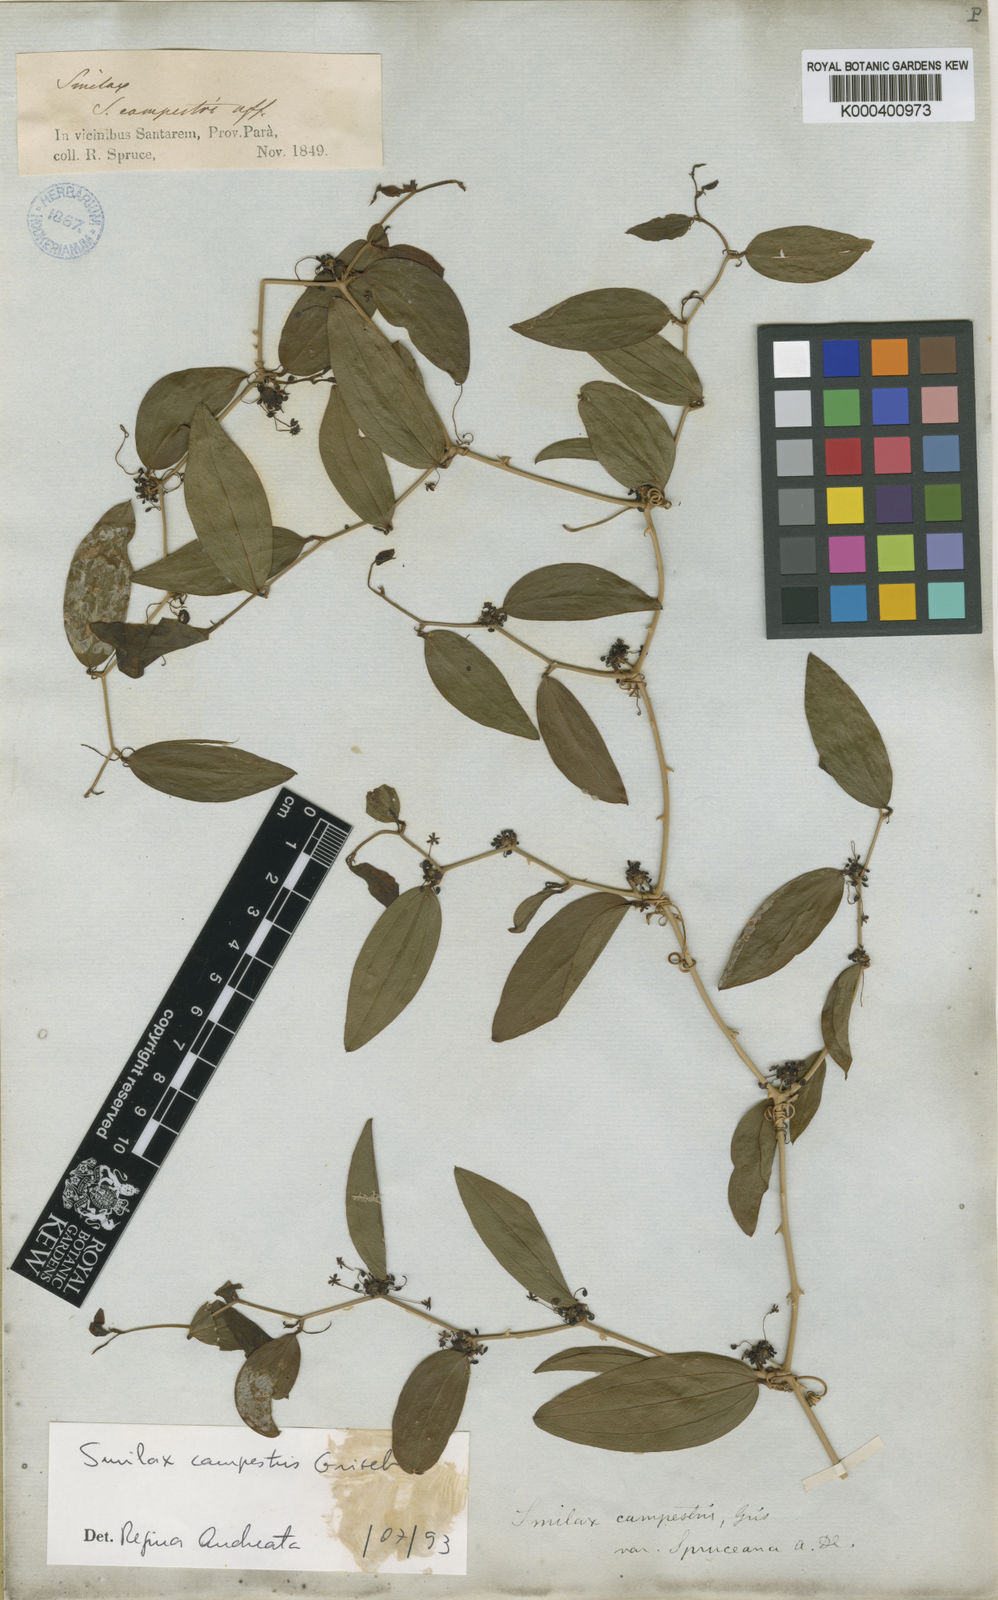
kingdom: Plantae
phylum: Tracheophyta
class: Liliopsida
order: Liliales
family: Smilacaceae
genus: Smilax
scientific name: Smilax campestris
